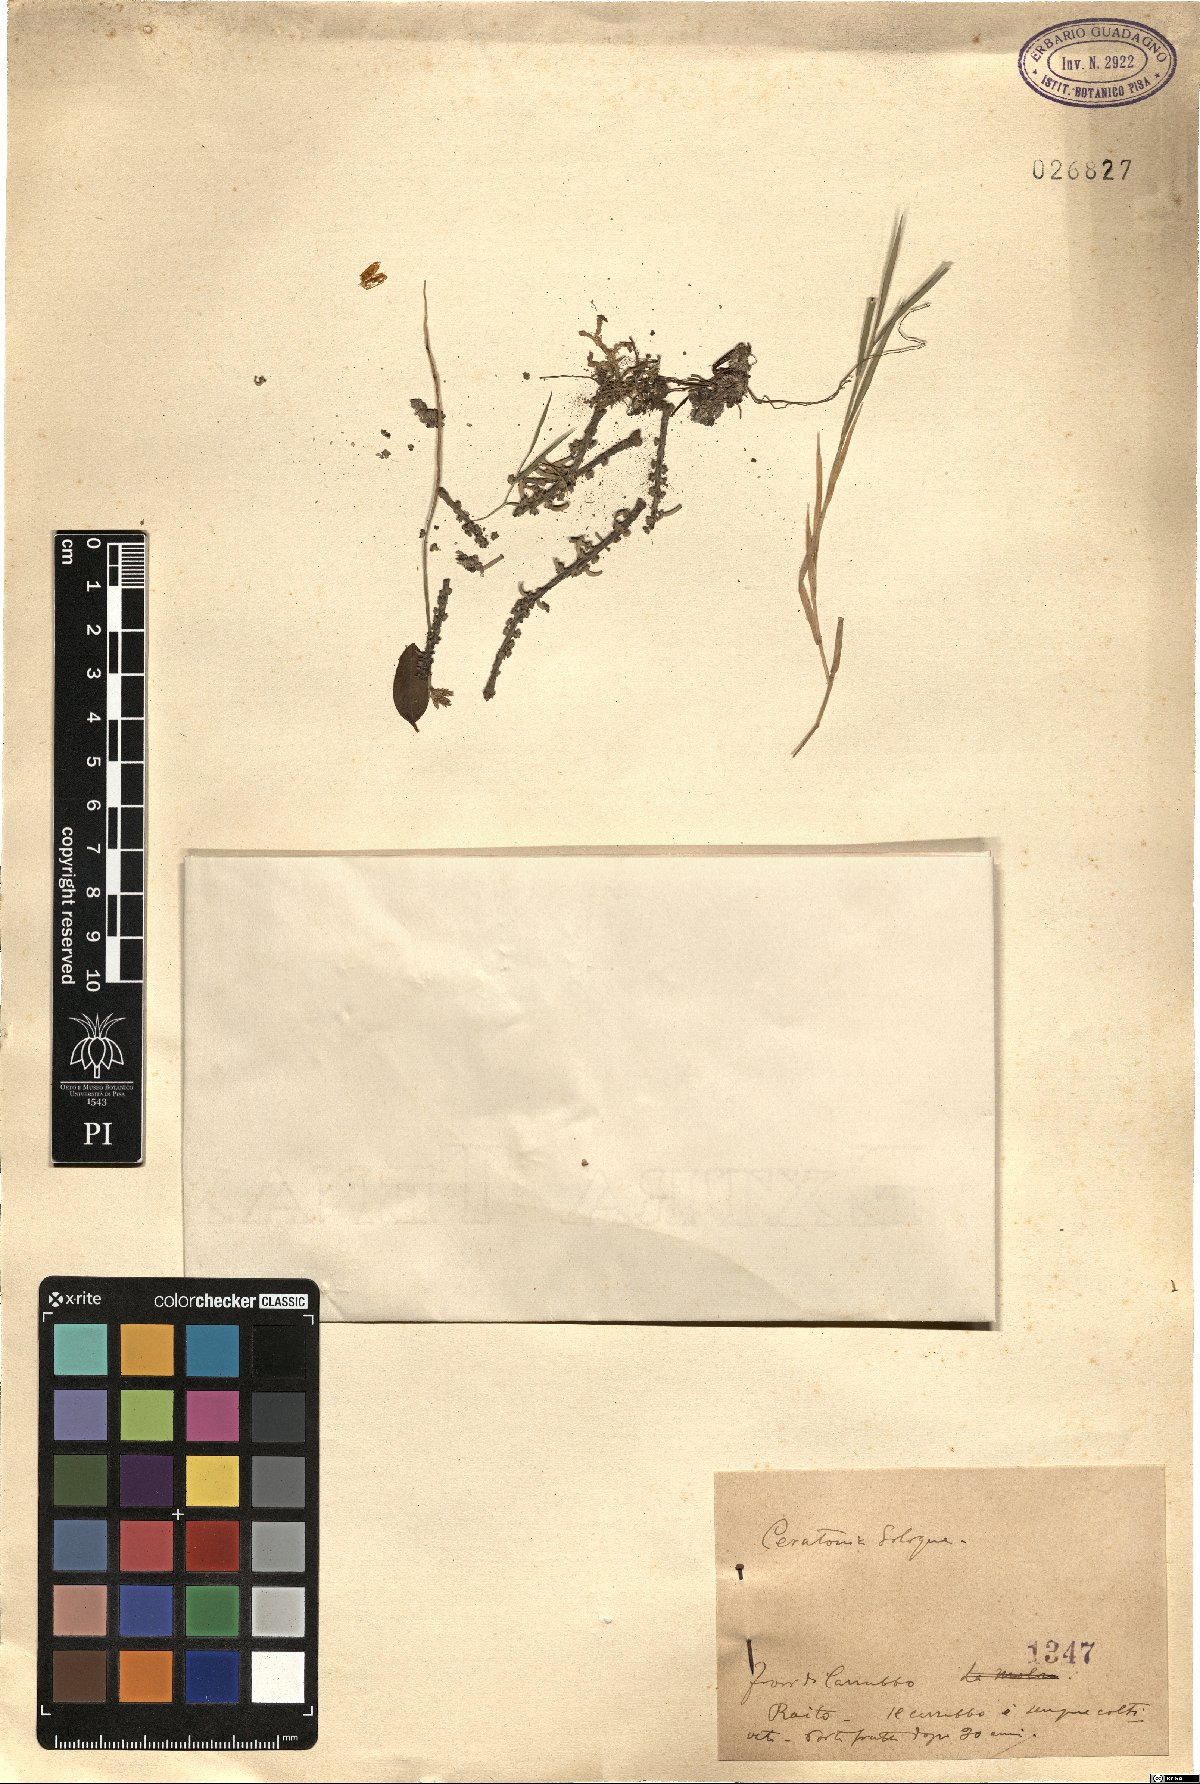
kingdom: Plantae
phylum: Tracheophyta
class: Magnoliopsida
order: Fabales
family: Fabaceae
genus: Ceratonia
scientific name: Ceratonia siliqua
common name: Carob
